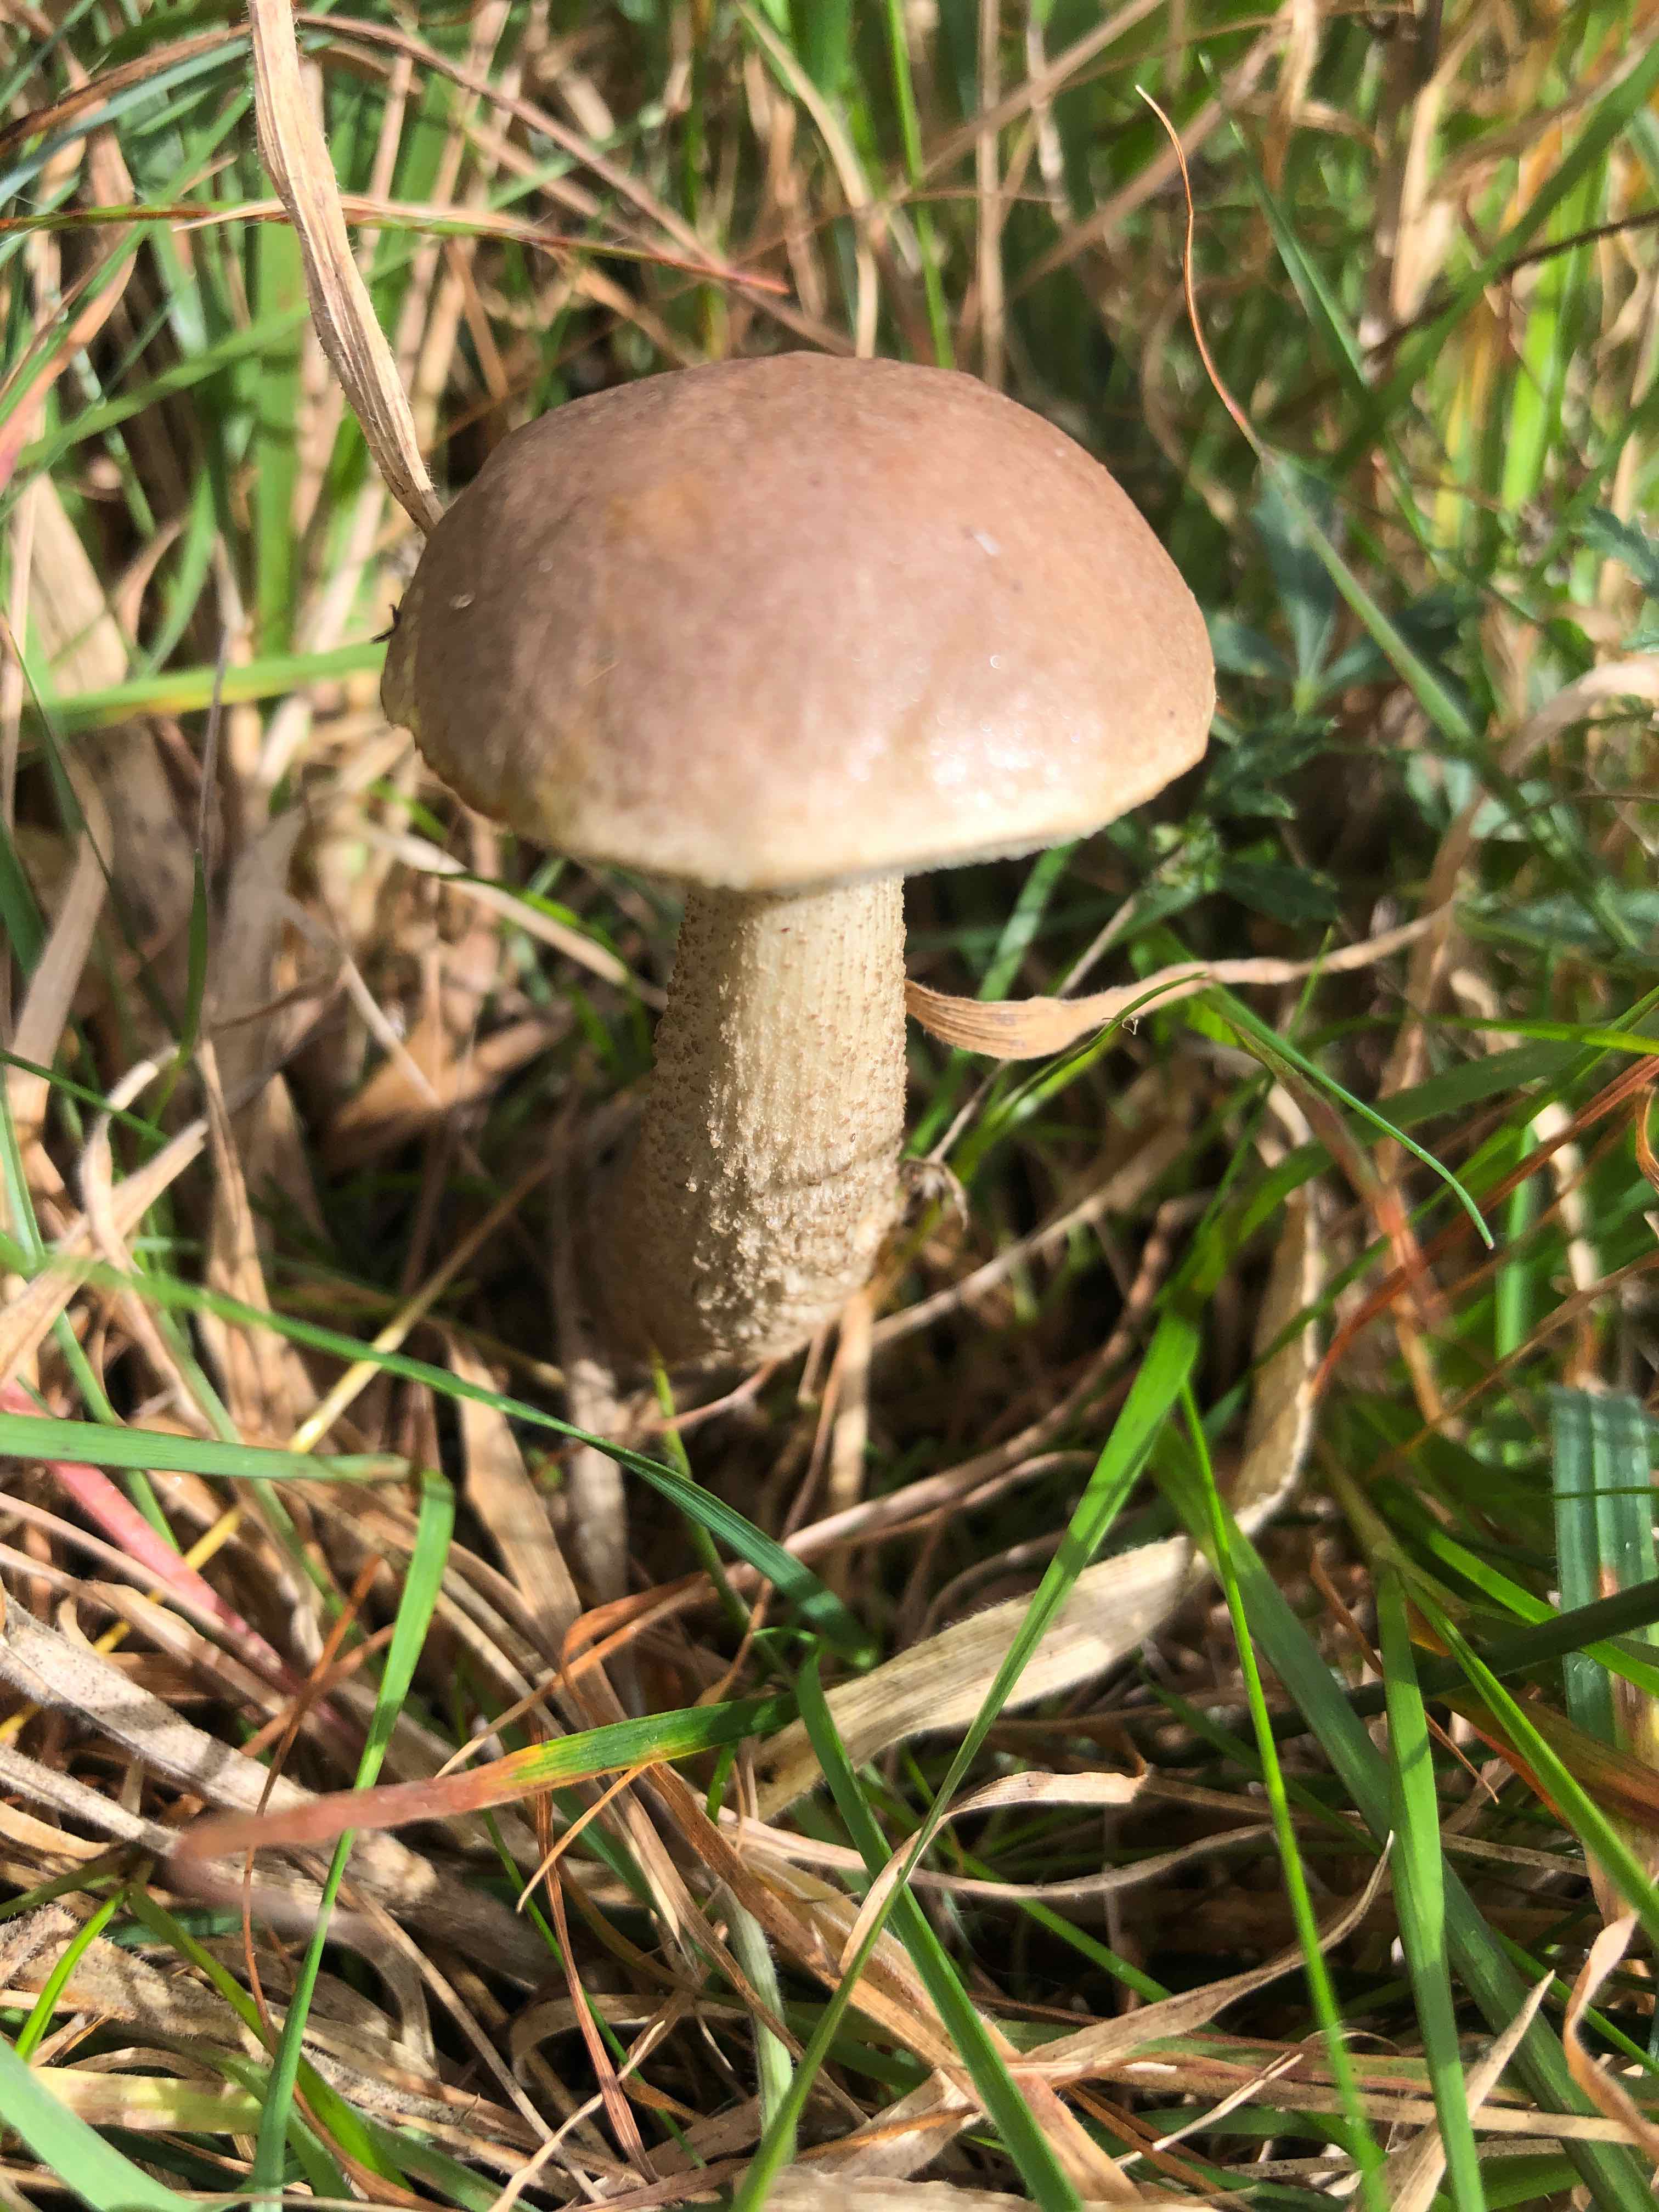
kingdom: Fungi
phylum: Basidiomycota
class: Agaricomycetes
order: Boletales
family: Boletaceae
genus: Leccinum
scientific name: Leccinum scabrum
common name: brun skælrørhat
